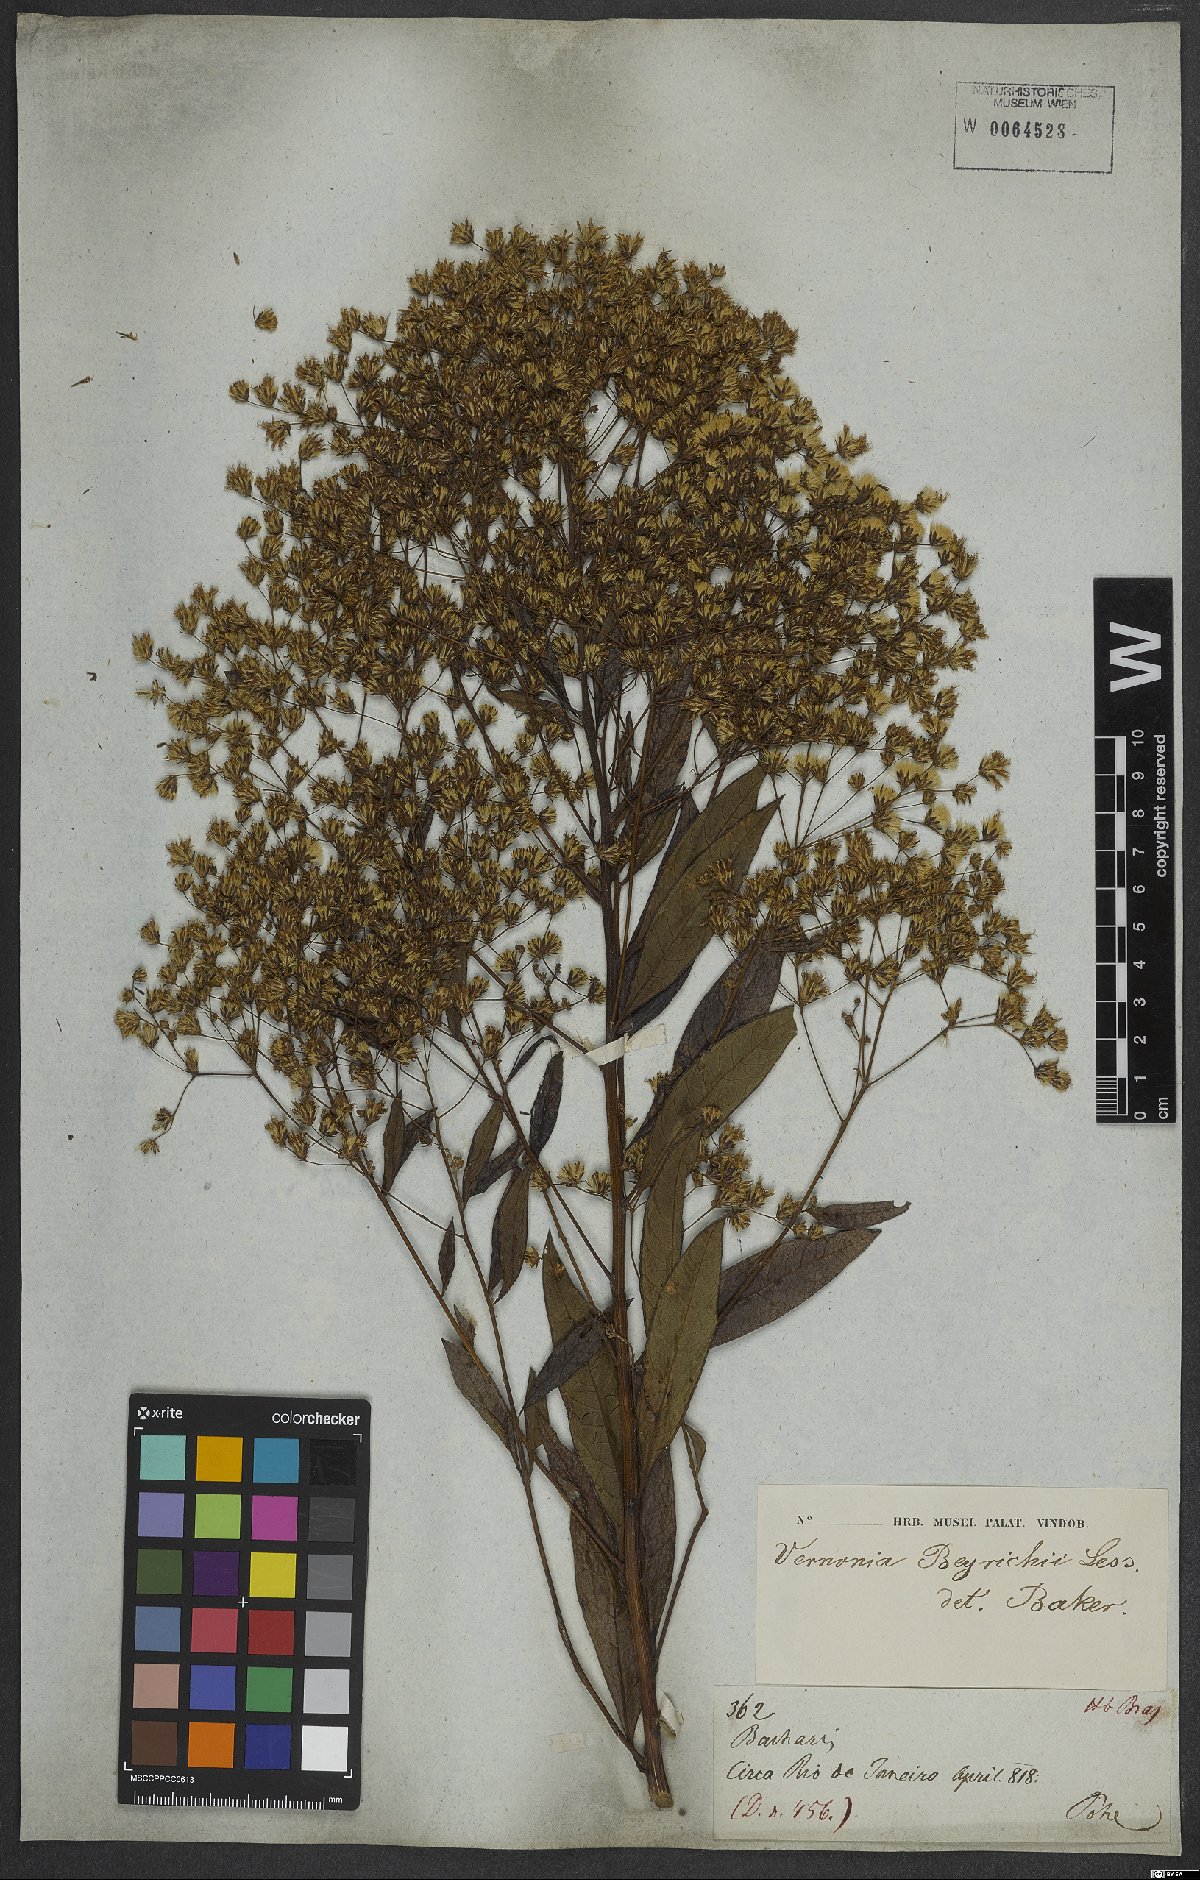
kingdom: Plantae
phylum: Tracheophyta
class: Magnoliopsida
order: Asterales
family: Asteraceae
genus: Vernonanthura
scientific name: Vernonanthura beyrichii
